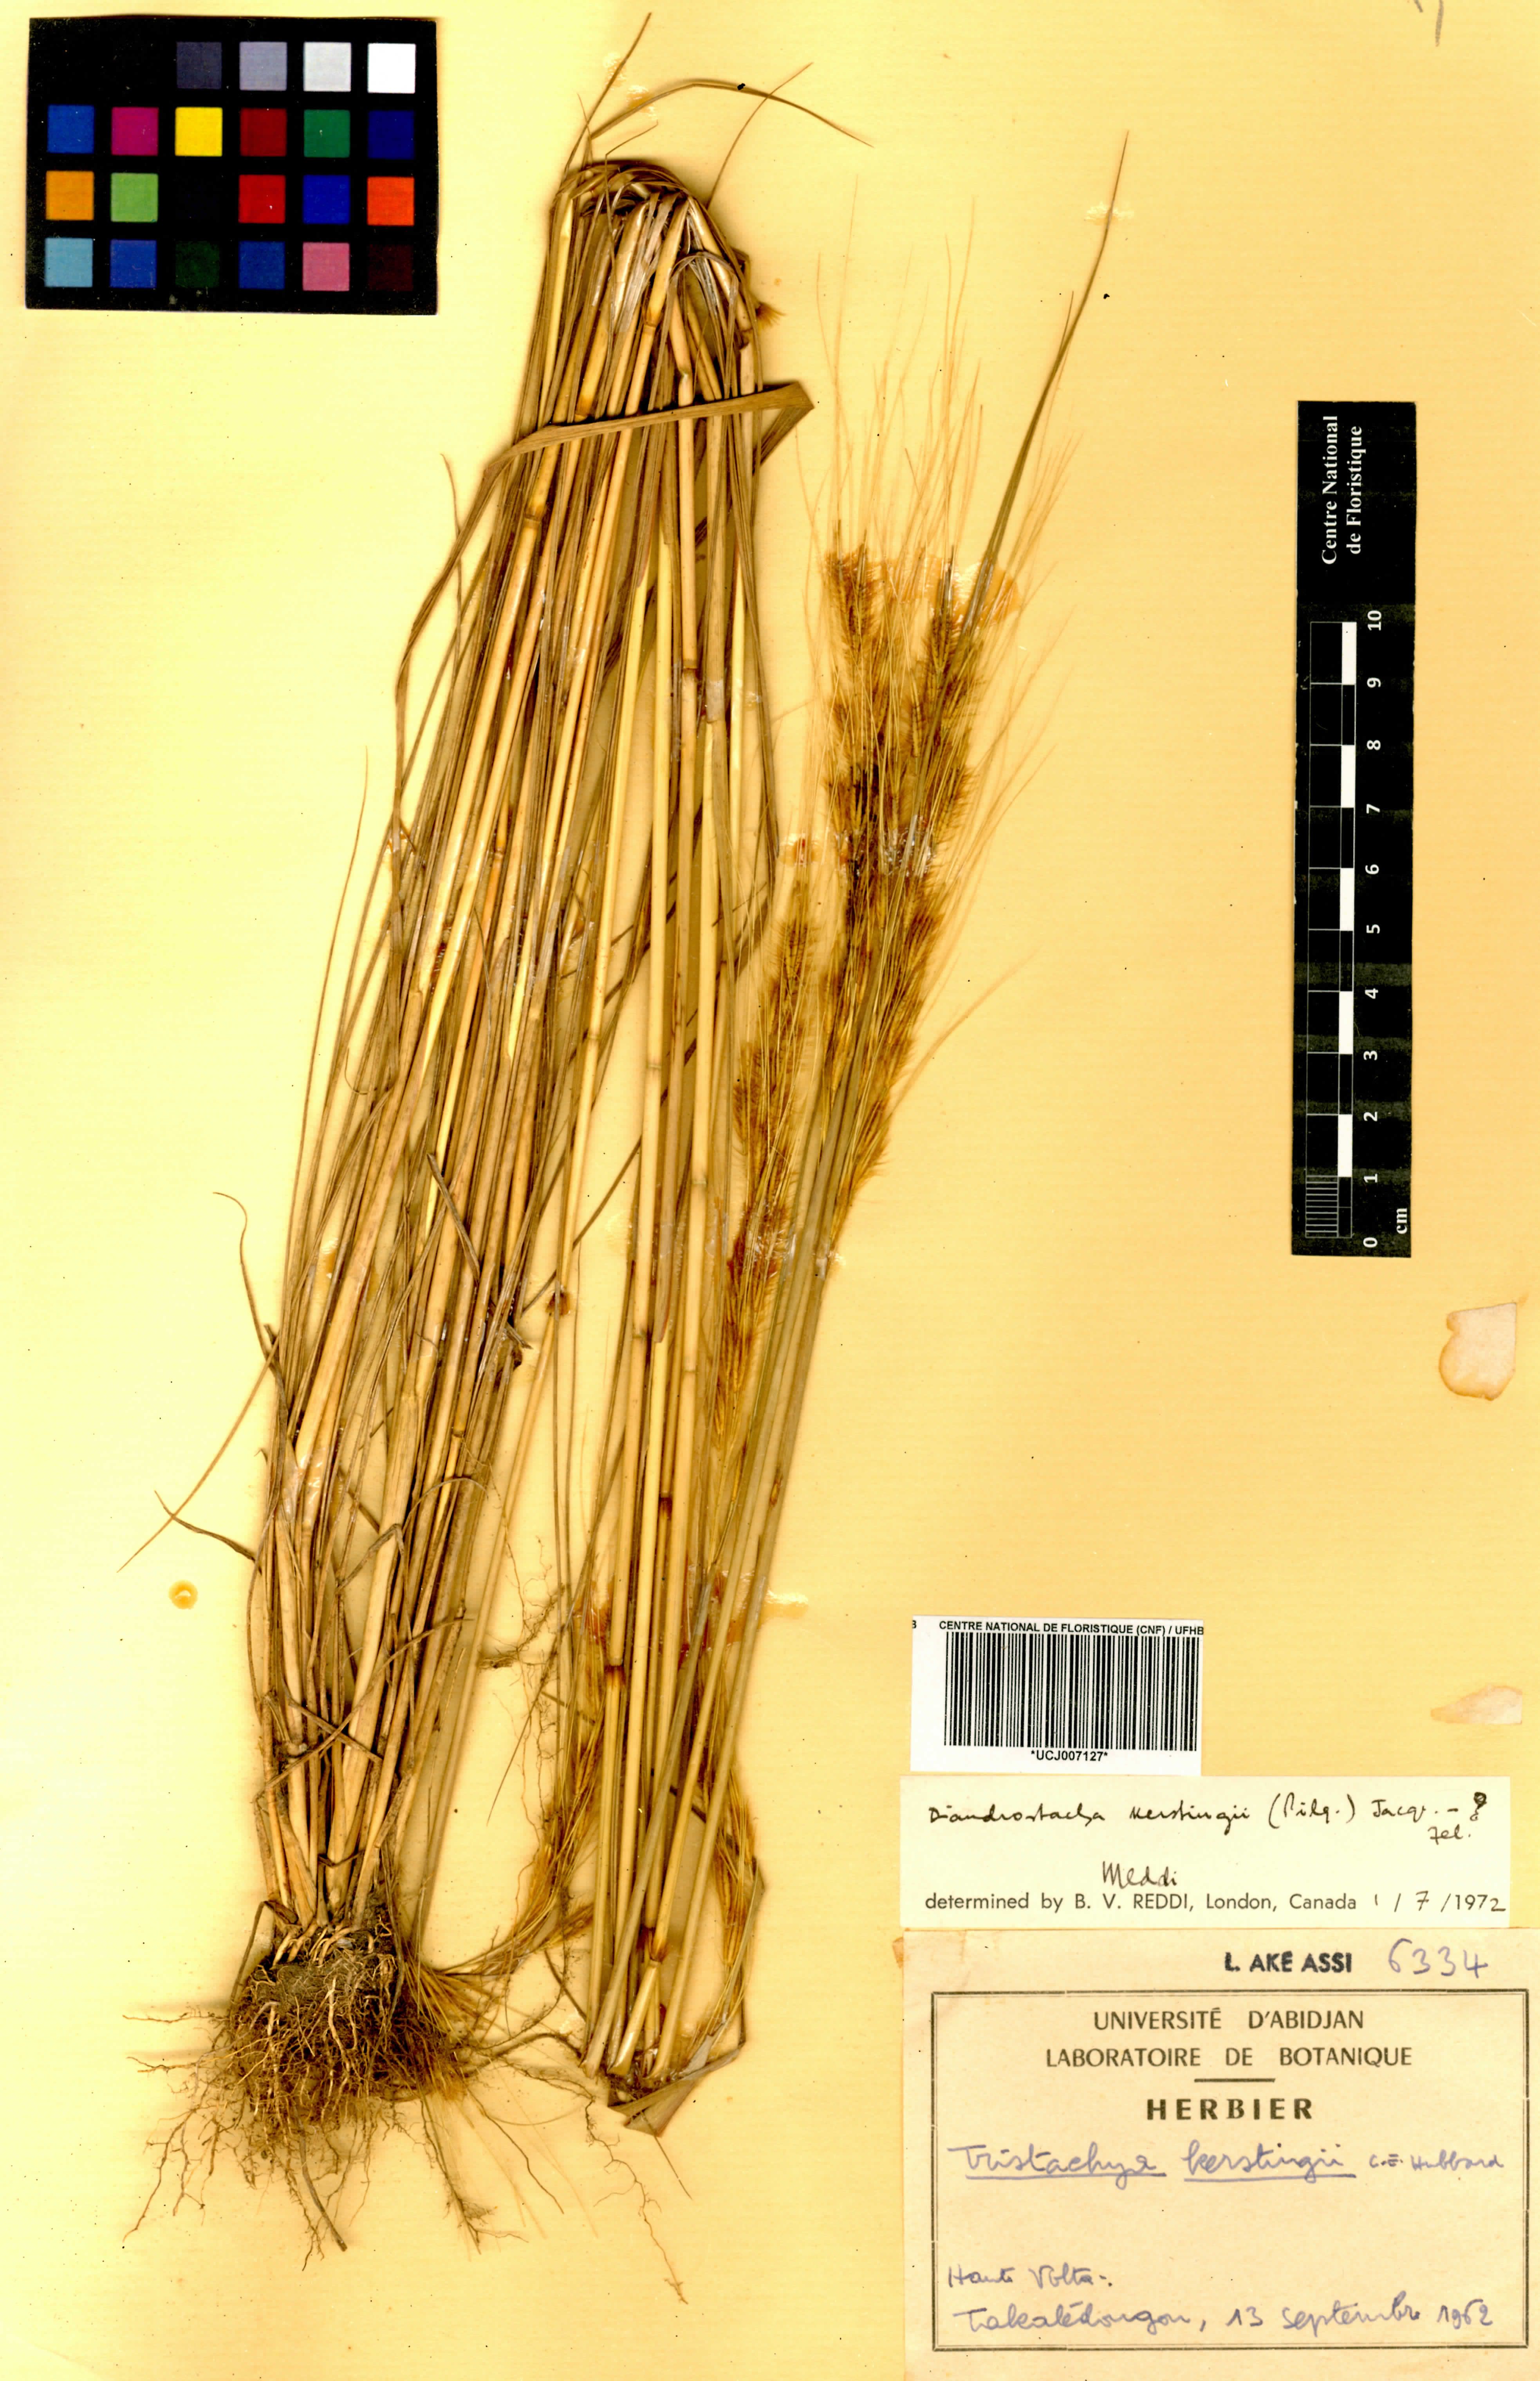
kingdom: Plantae
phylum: Tracheophyta
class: Liliopsida
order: Poales
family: Poaceae
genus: Loudetiopsis
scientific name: Loudetiopsis kerstingii
